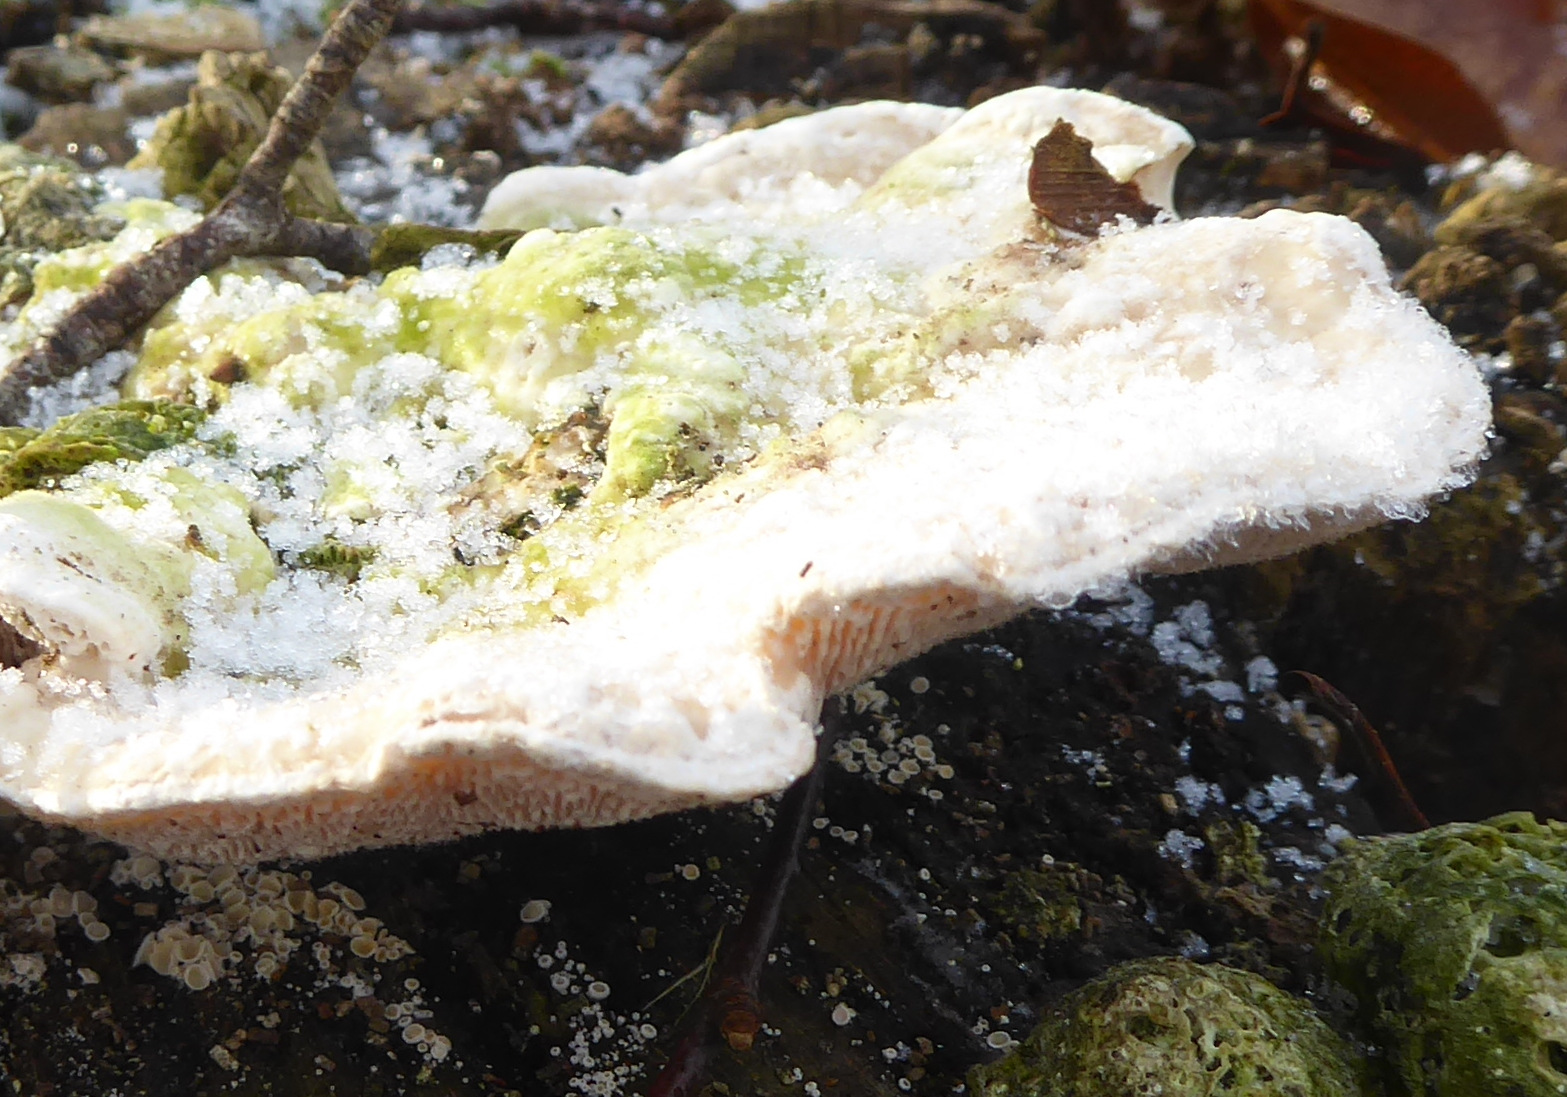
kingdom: Fungi
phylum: Basidiomycota
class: Agaricomycetes
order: Polyporales
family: Polyporaceae
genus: Trametes
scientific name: Trametes gibbosa
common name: puklet læderporesvamp
